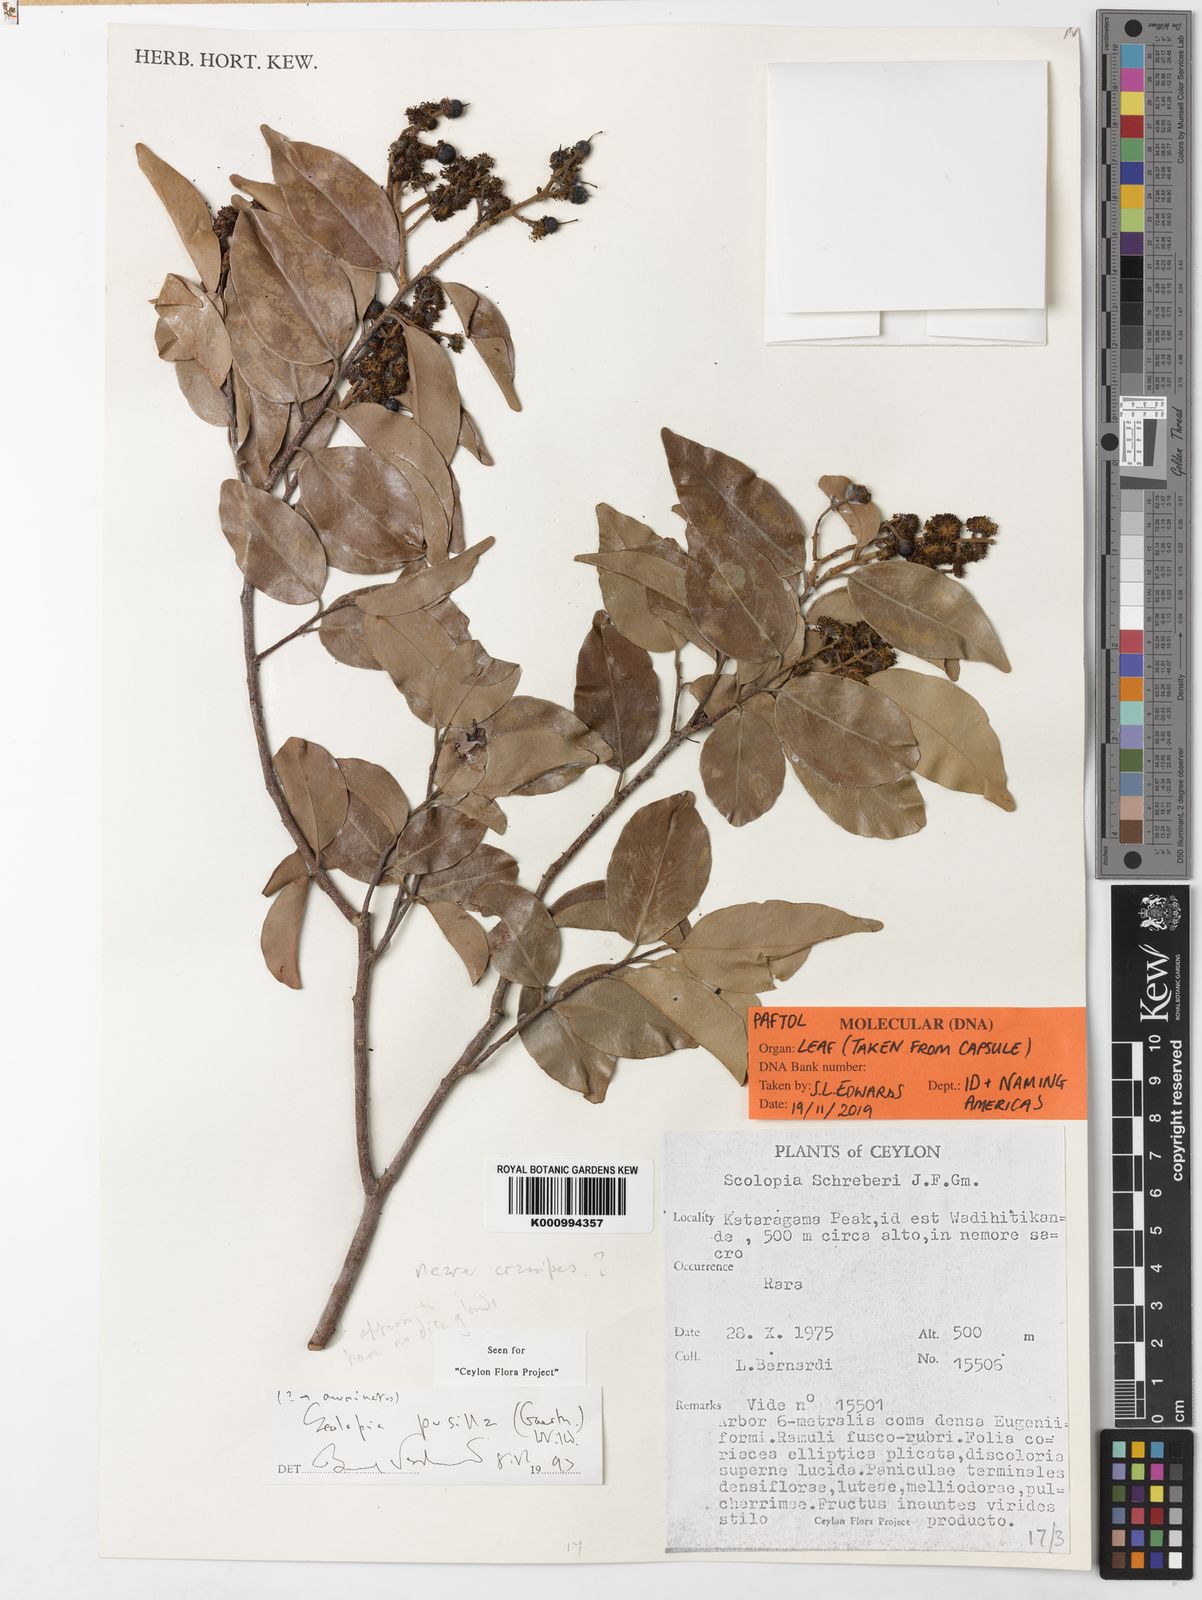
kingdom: Plantae
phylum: Tracheophyta
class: Magnoliopsida
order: Malpighiales
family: Salicaceae
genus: Scolopia
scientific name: Scolopia pusilla
